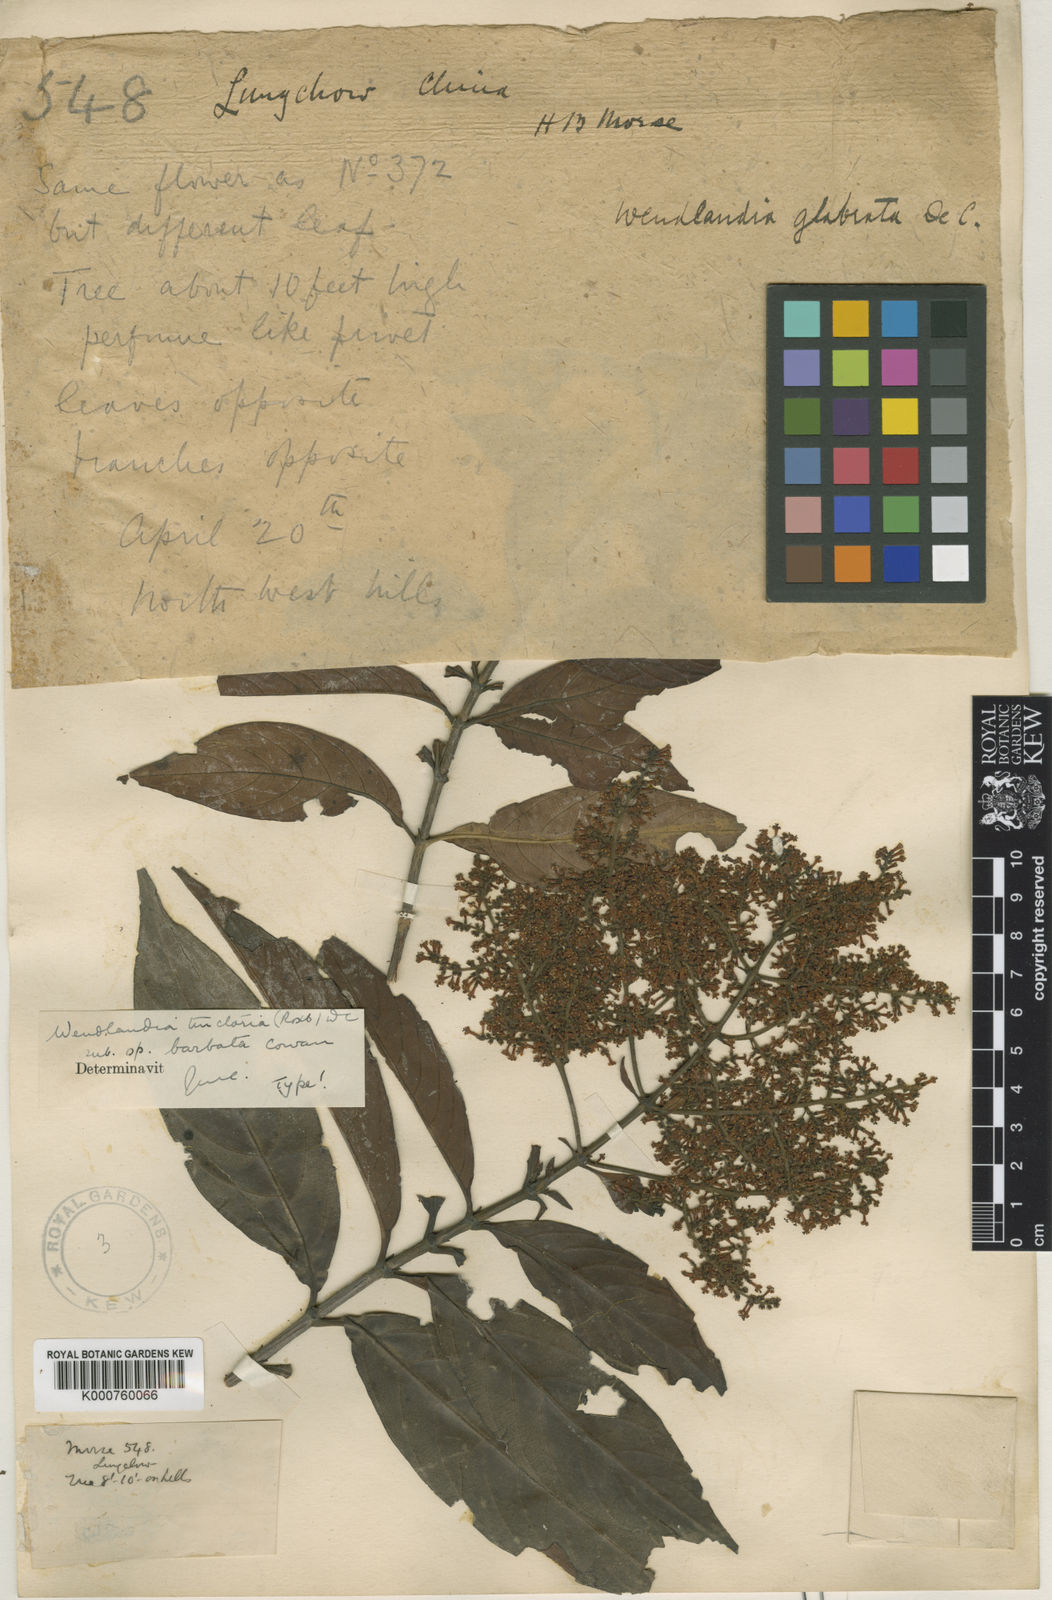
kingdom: Plantae
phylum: Tracheophyta
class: Magnoliopsida
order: Gentianales
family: Rubiaceae
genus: Wendlandia
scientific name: Wendlandia tinctoria
